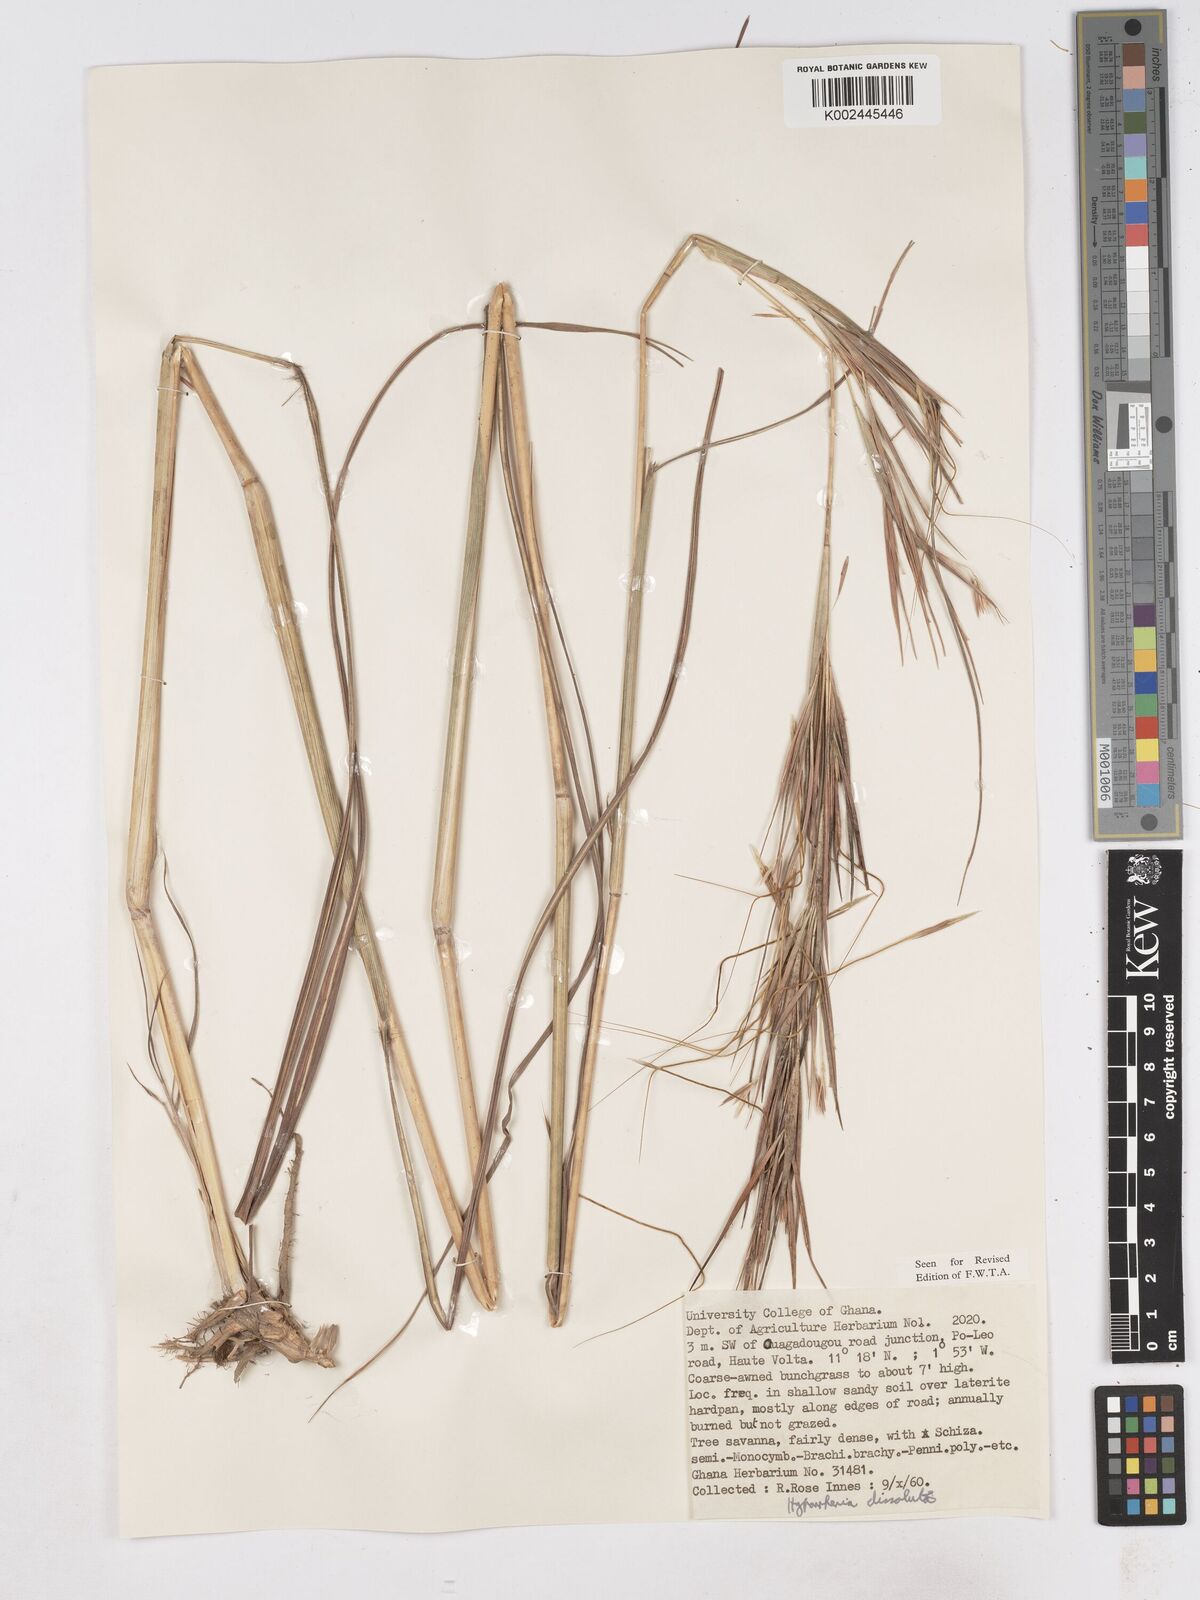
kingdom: Plantae
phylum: Tracheophyta
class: Liliopsida
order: Poales
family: Poaceae
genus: Hyperthelia
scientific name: Hyperthelia dissoluta
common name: Yellow thatching grass
